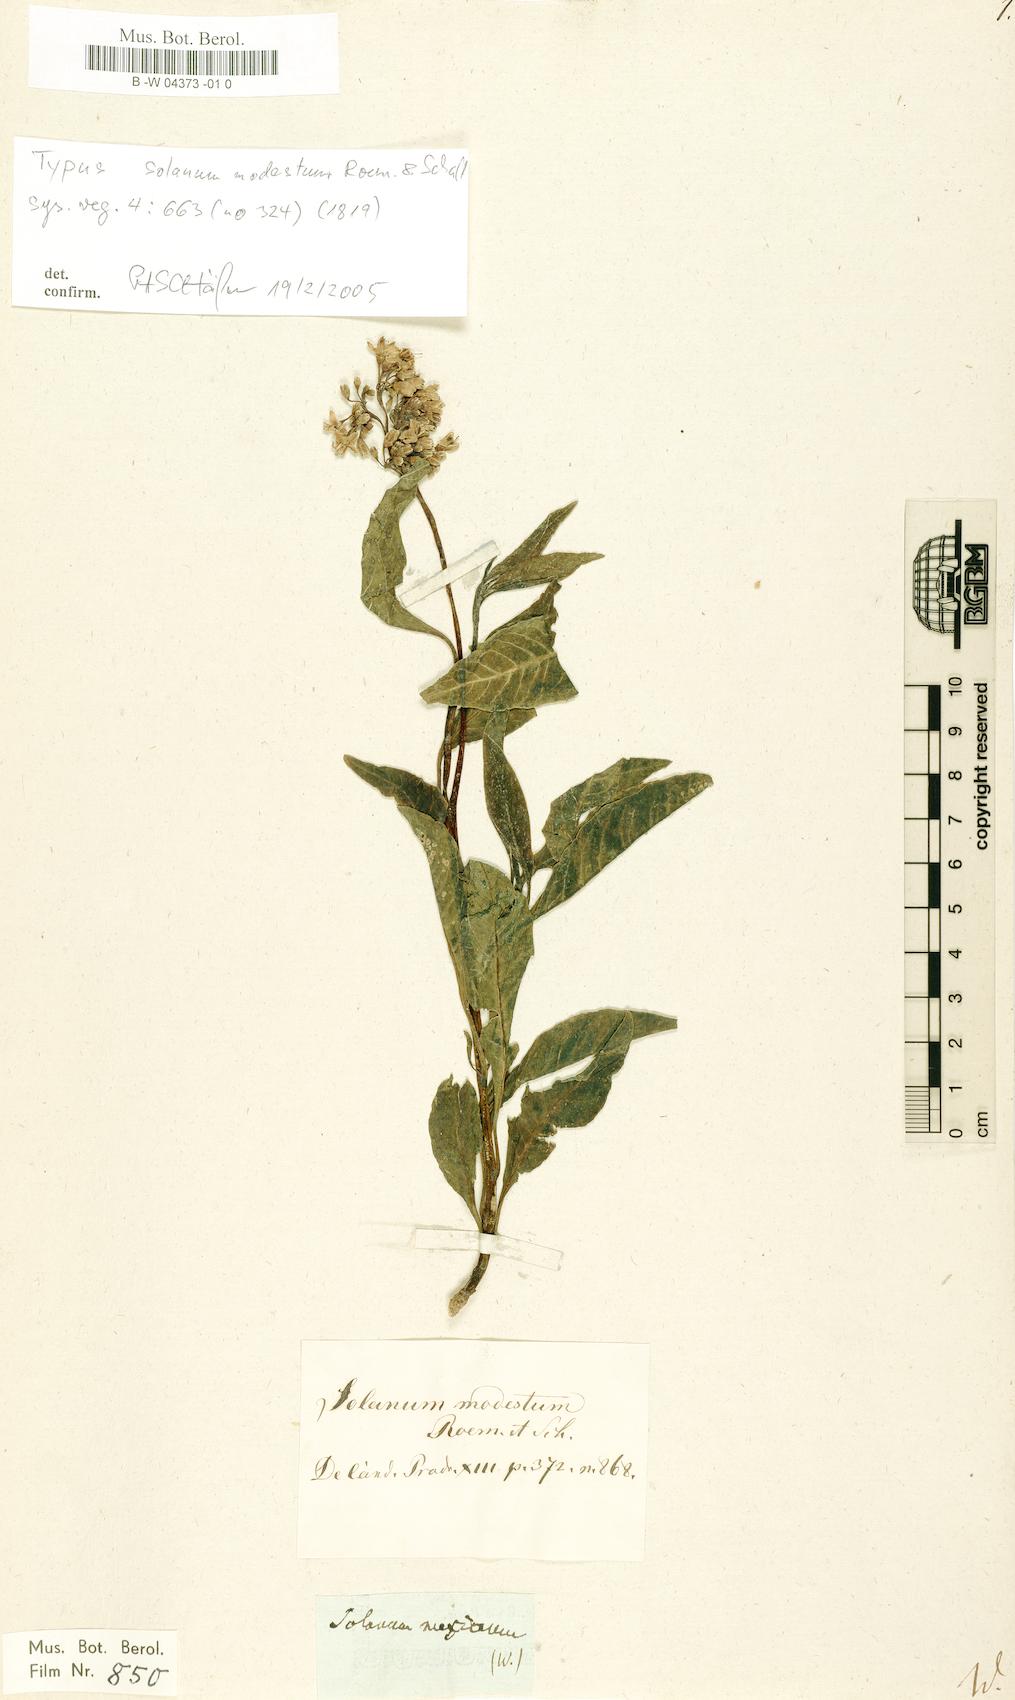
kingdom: Plantae
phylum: Tracheophyta
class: Magnoliopsida
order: Solanales
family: Solanaceae
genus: Solanum
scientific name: Solanum mexicanum
